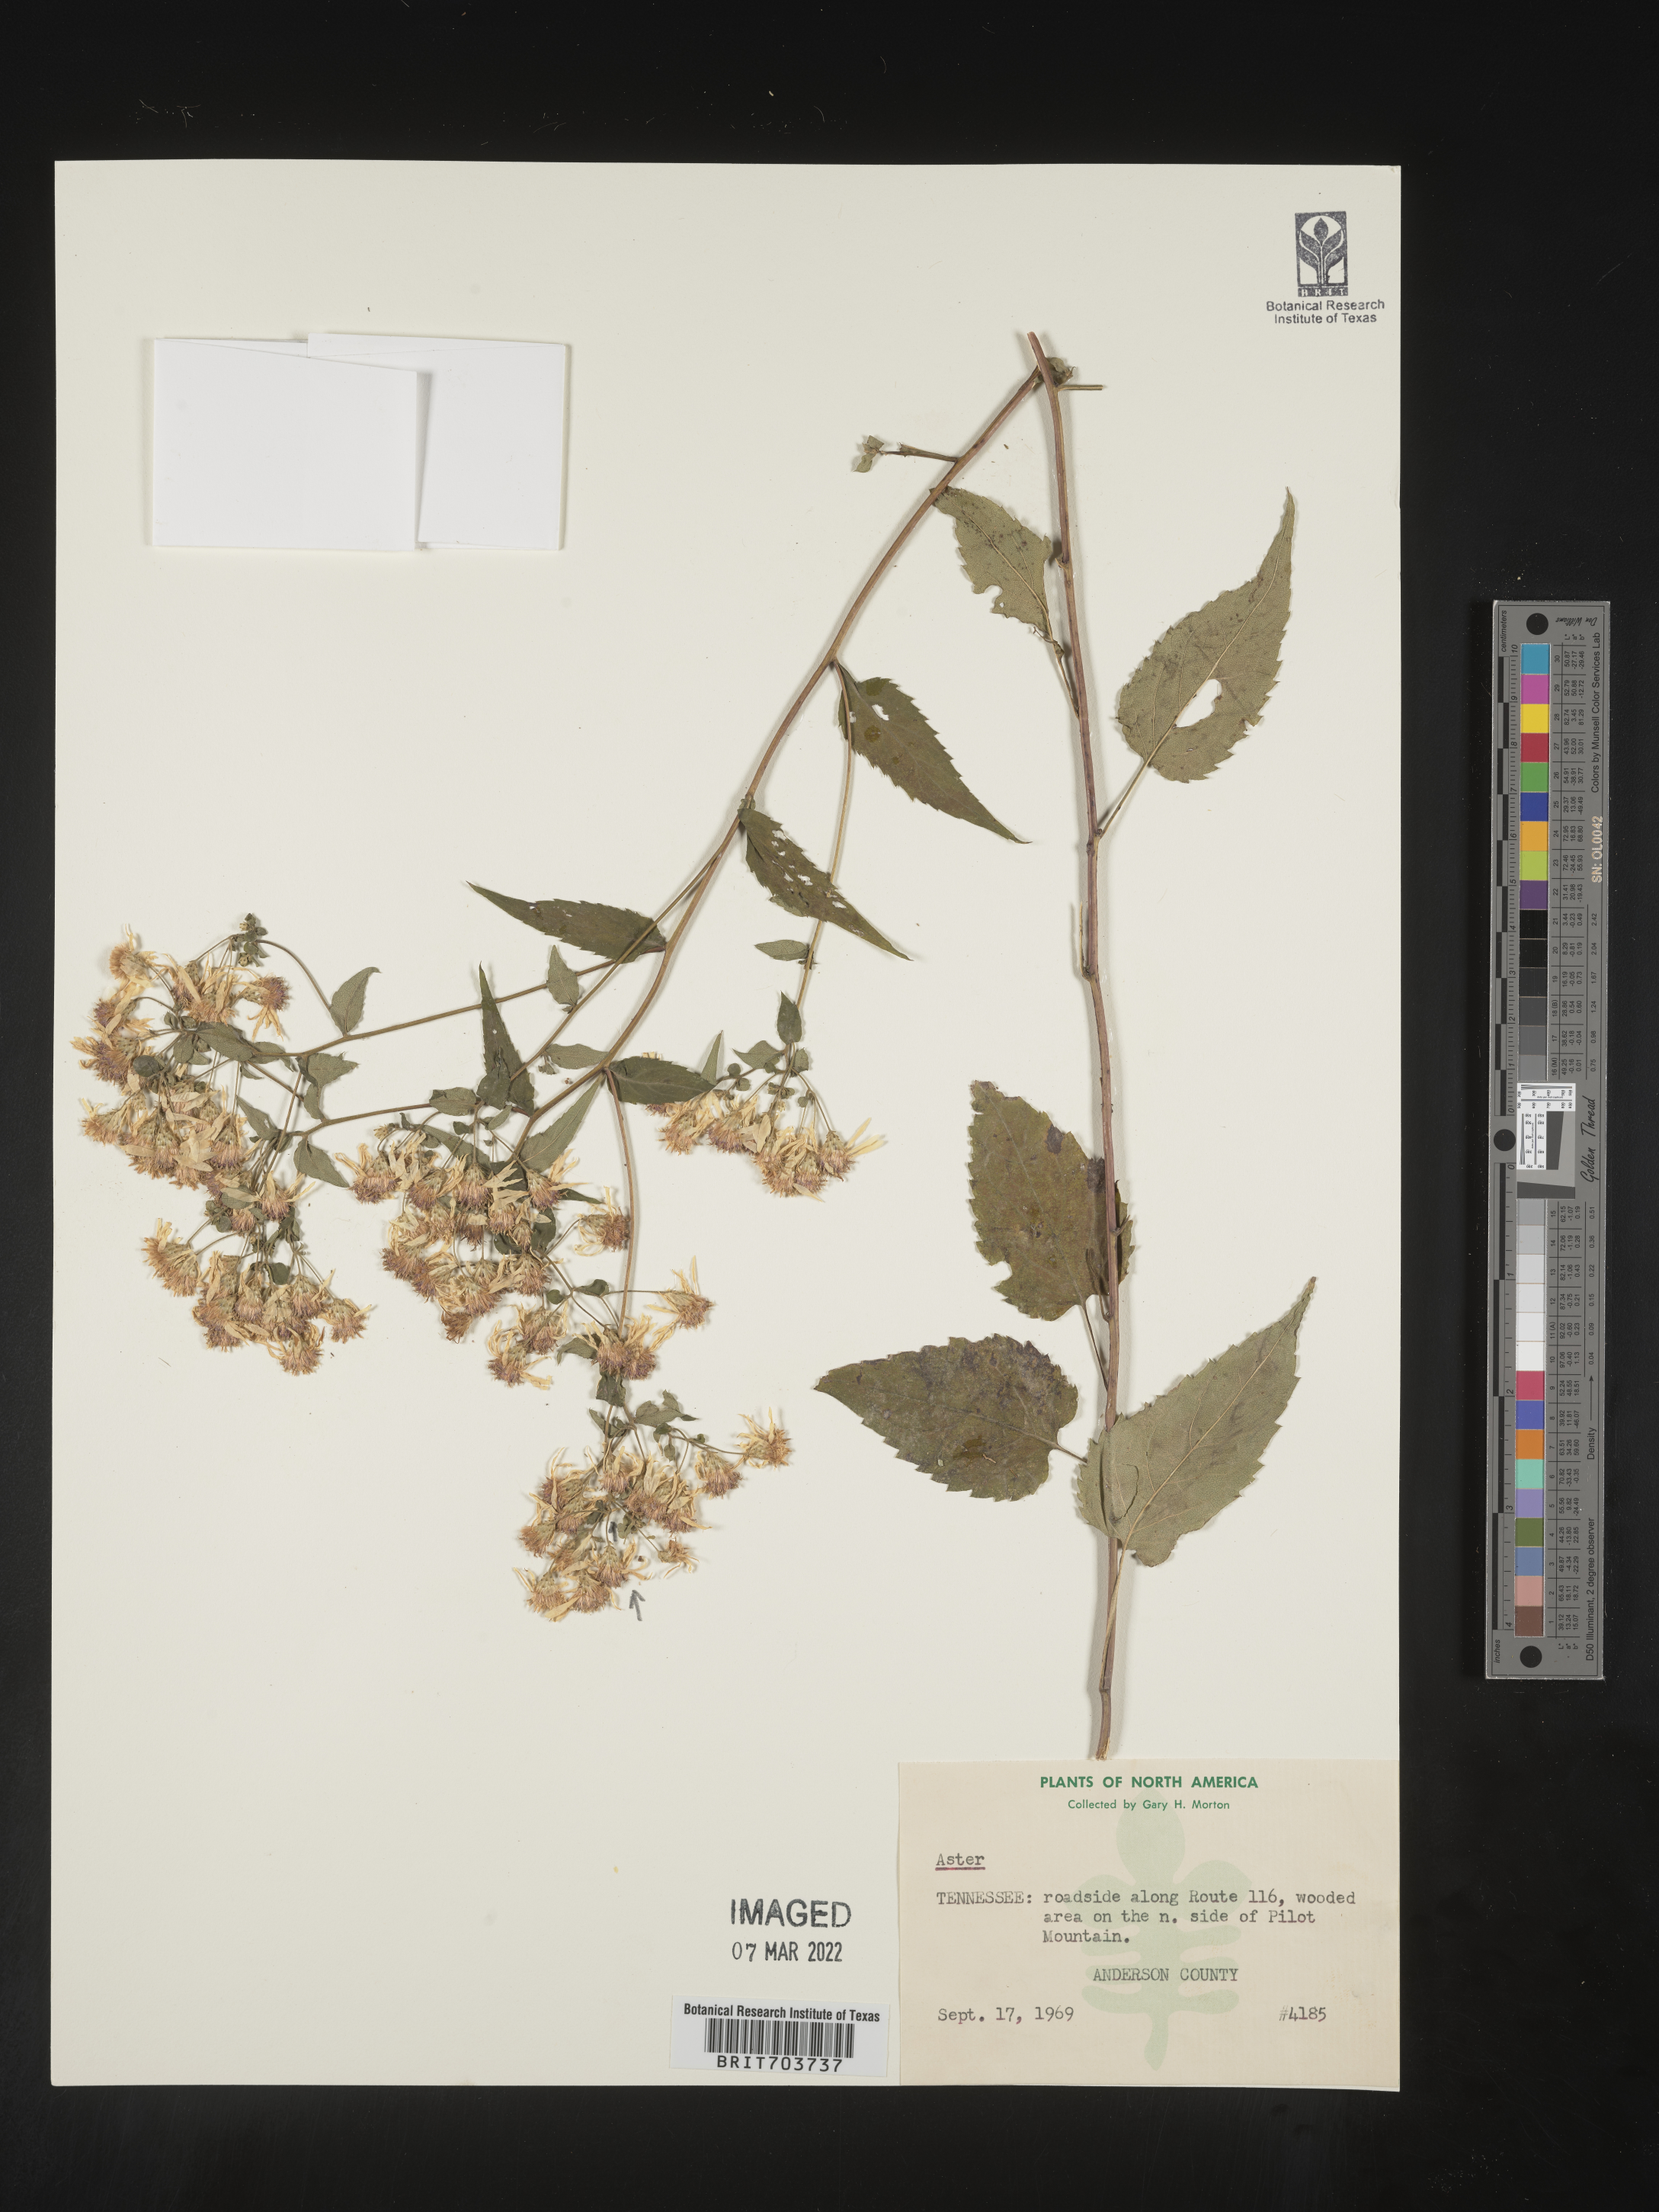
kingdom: Plantae
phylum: Tracheophyta
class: Magnoliopsida
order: Asterales
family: Asteraceae
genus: Eurybia
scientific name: Eurybia
